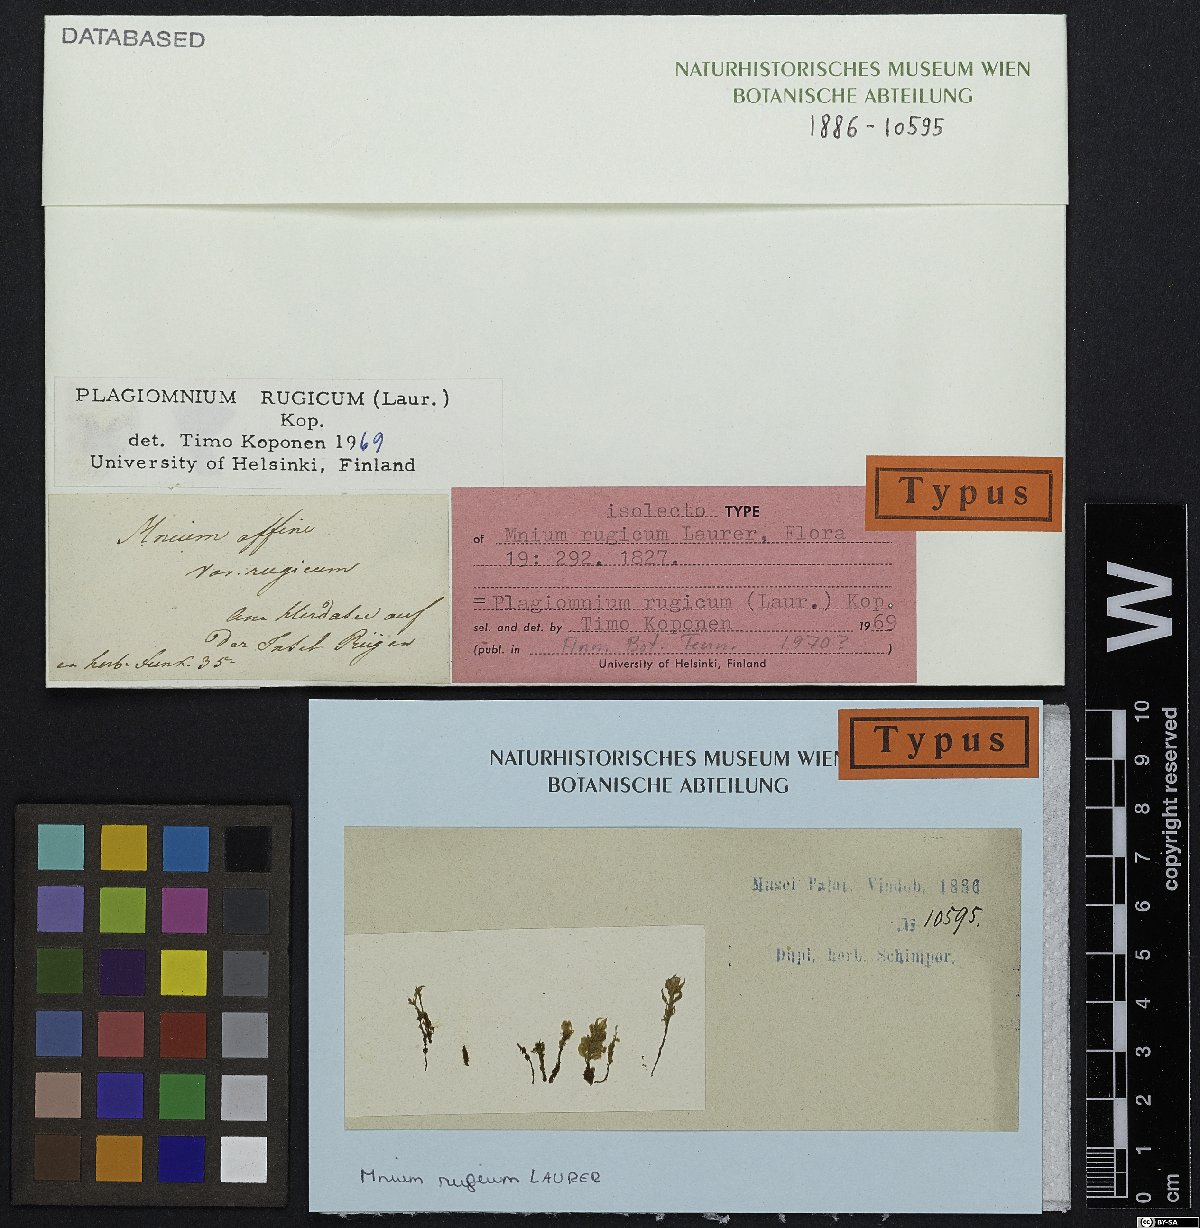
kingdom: Plantae
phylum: Bryophyta
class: Bryopsida
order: Bryales
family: Mniaceae
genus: Plagiomnium
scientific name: Plagiomnium ellipticum
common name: Marsh leafy moss
